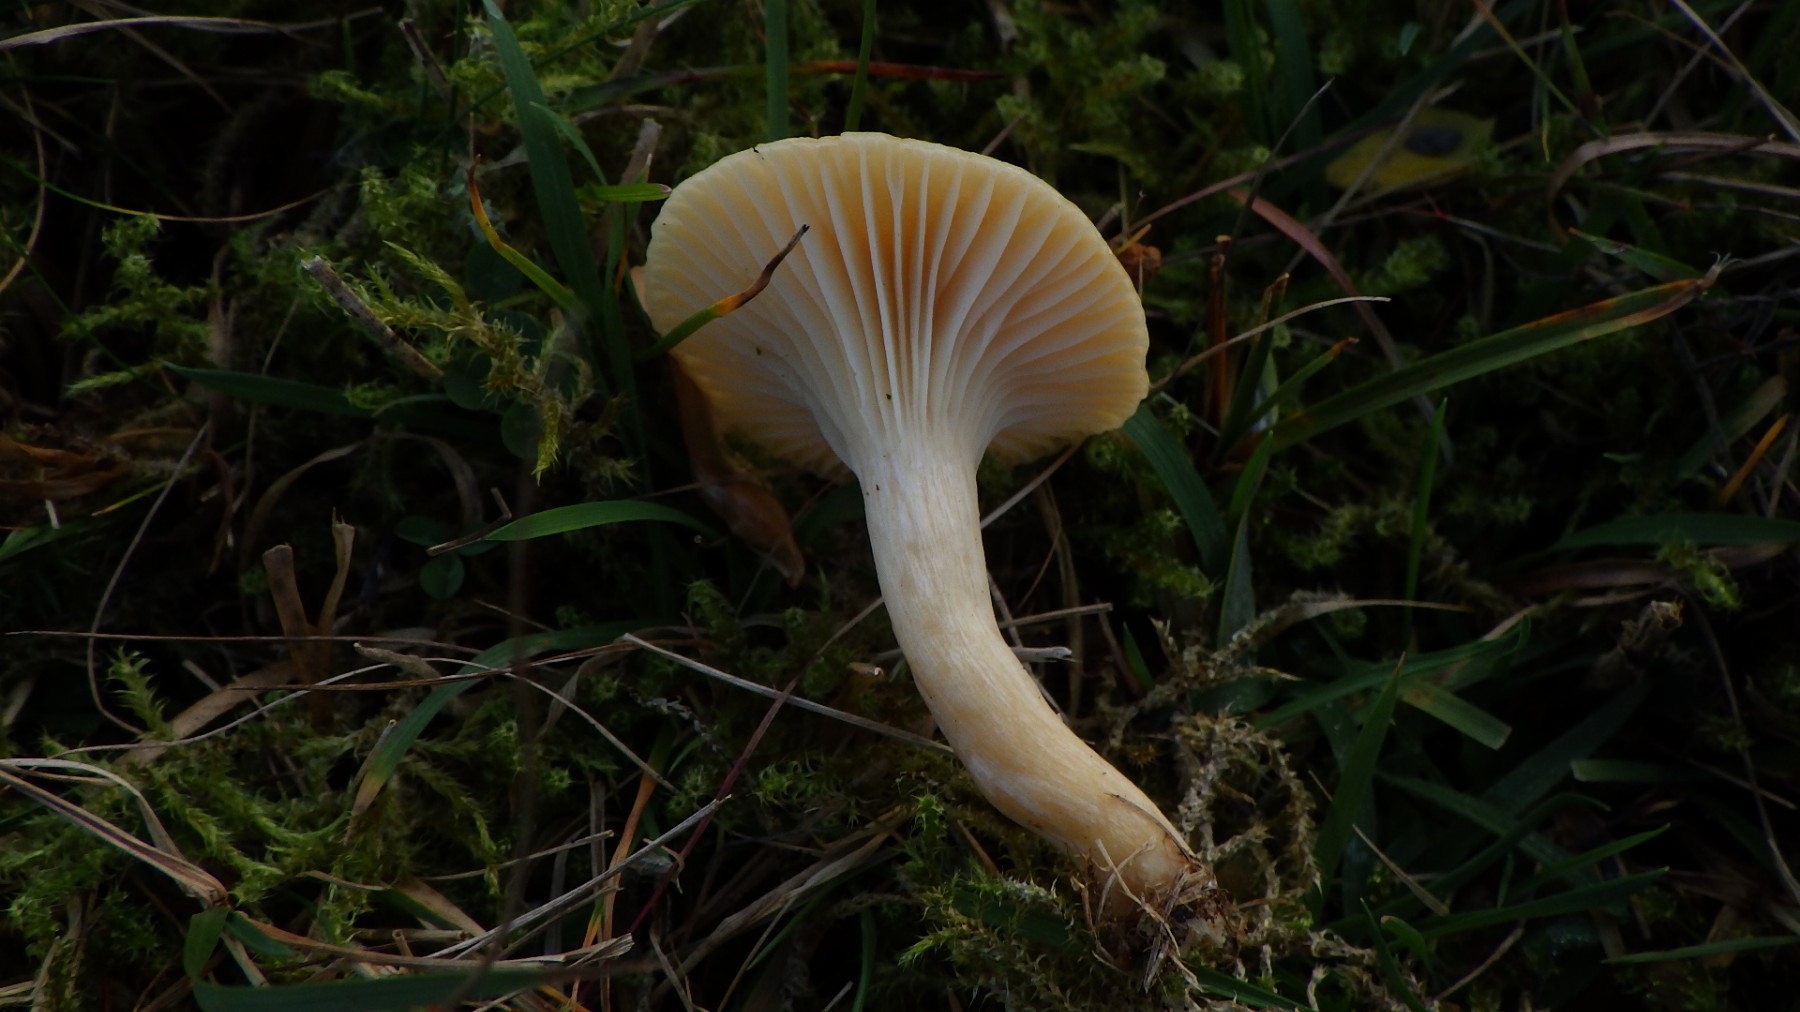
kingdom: Fungi
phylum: Basidiomycota
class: Agaricomycetes
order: Agaricales
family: Hygrophoraceae
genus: Cuphophyllus
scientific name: Cuphophyllus pratensis
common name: eng-vokshat
